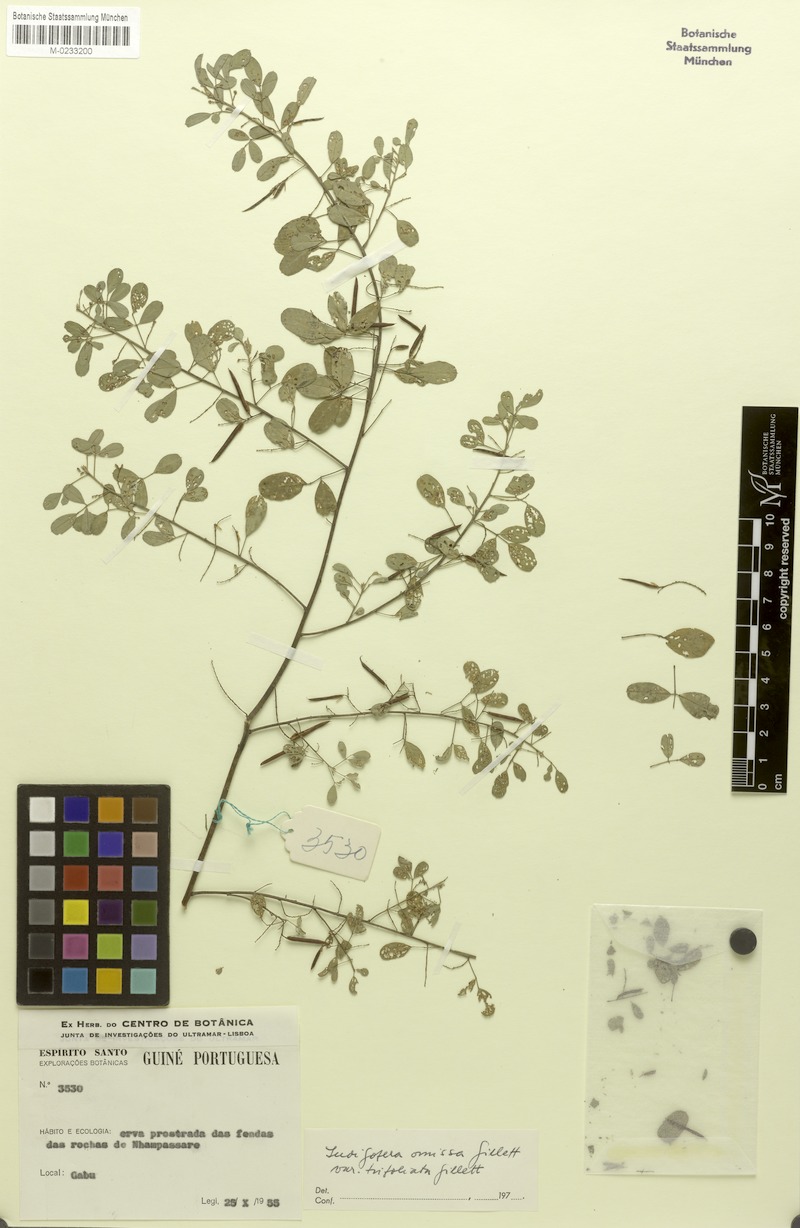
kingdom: Plantae
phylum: Tracheophyta
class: Magnoliopsida
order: Fabales
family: Fabaceae
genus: Indigofera
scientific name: Indigofera omissa
